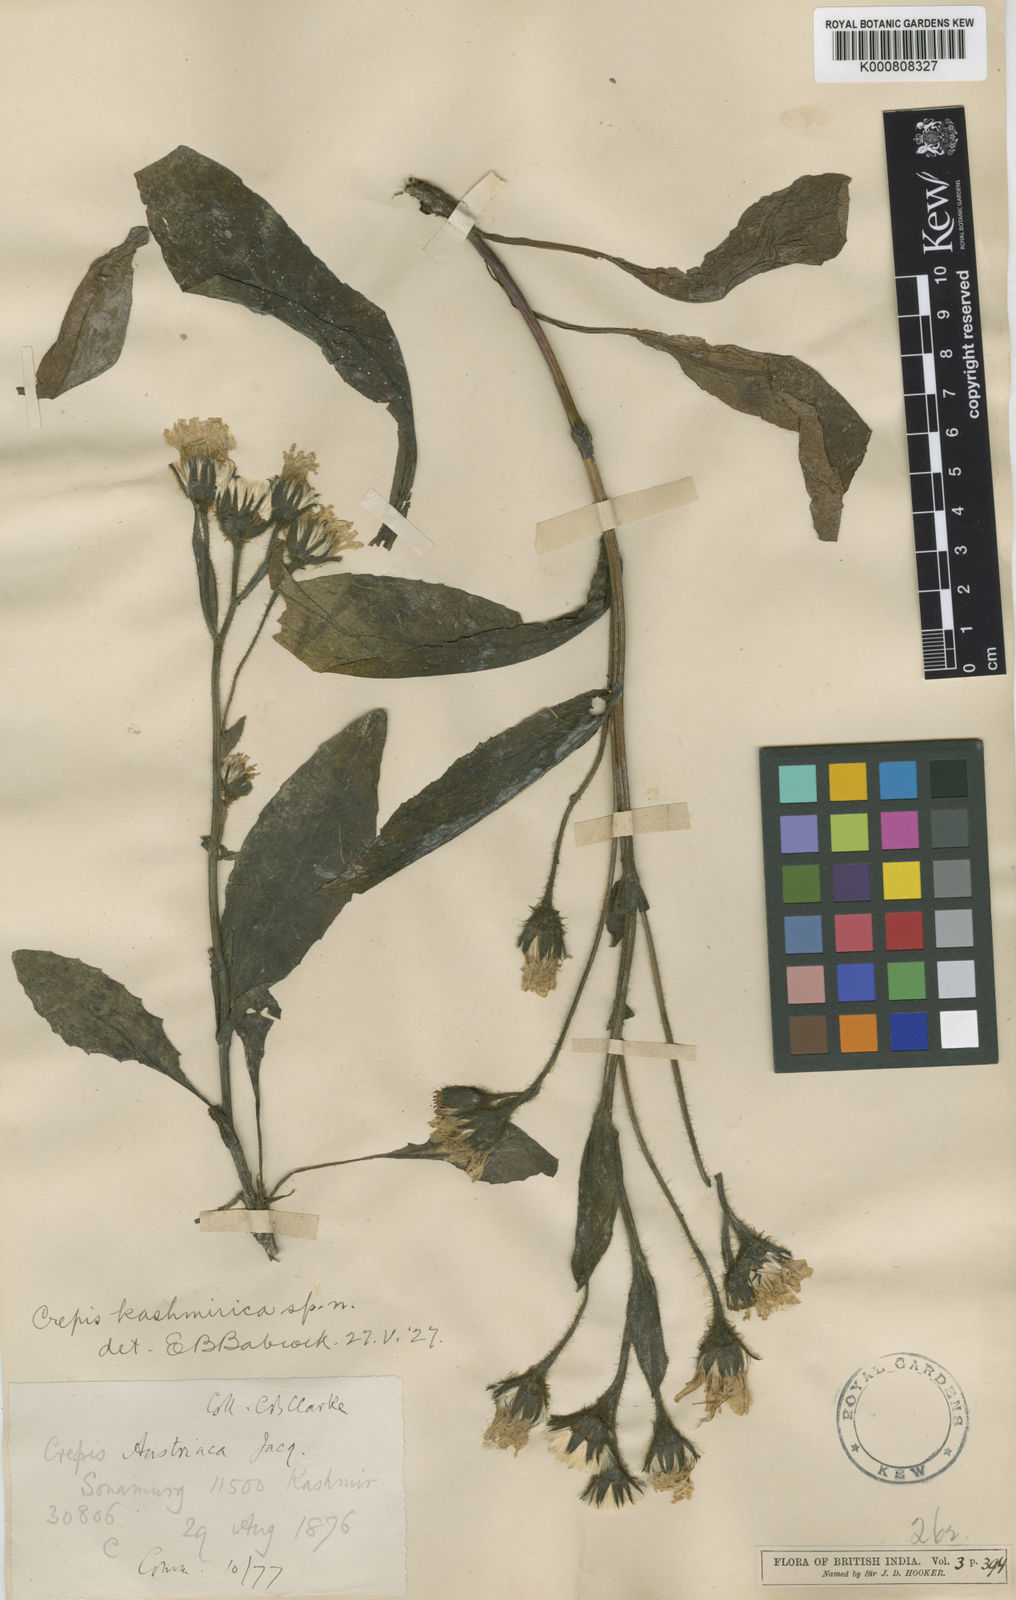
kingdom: Plantae
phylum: Tracheophyta
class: Magnoliopsida
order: Asterales
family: Asteraceae
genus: Crepis
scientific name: Crepis kashmirica
